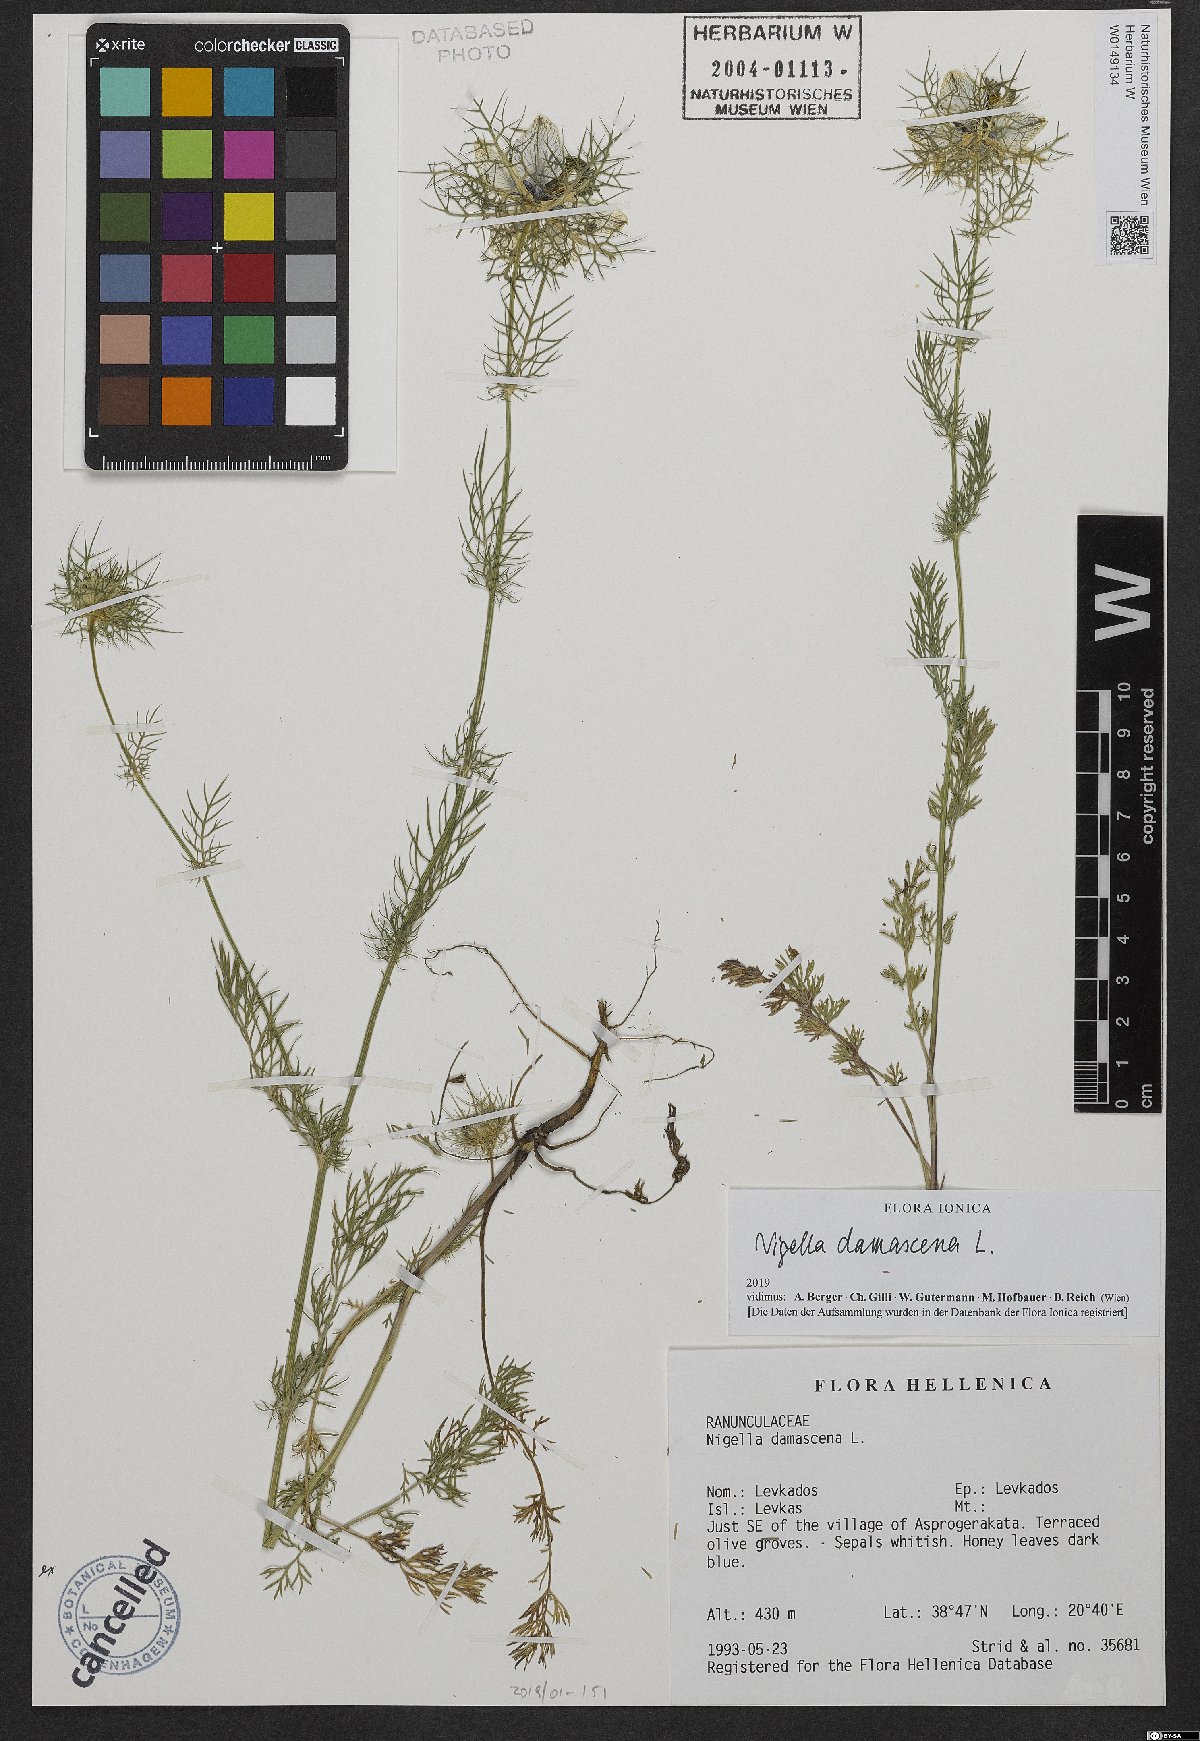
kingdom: Plantae
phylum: Tracheophyta
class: Magnoliopsida
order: Ranunculales
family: Ranunculaceae
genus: Nigella
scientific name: Nigella damascena
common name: Love-in-a-mist
